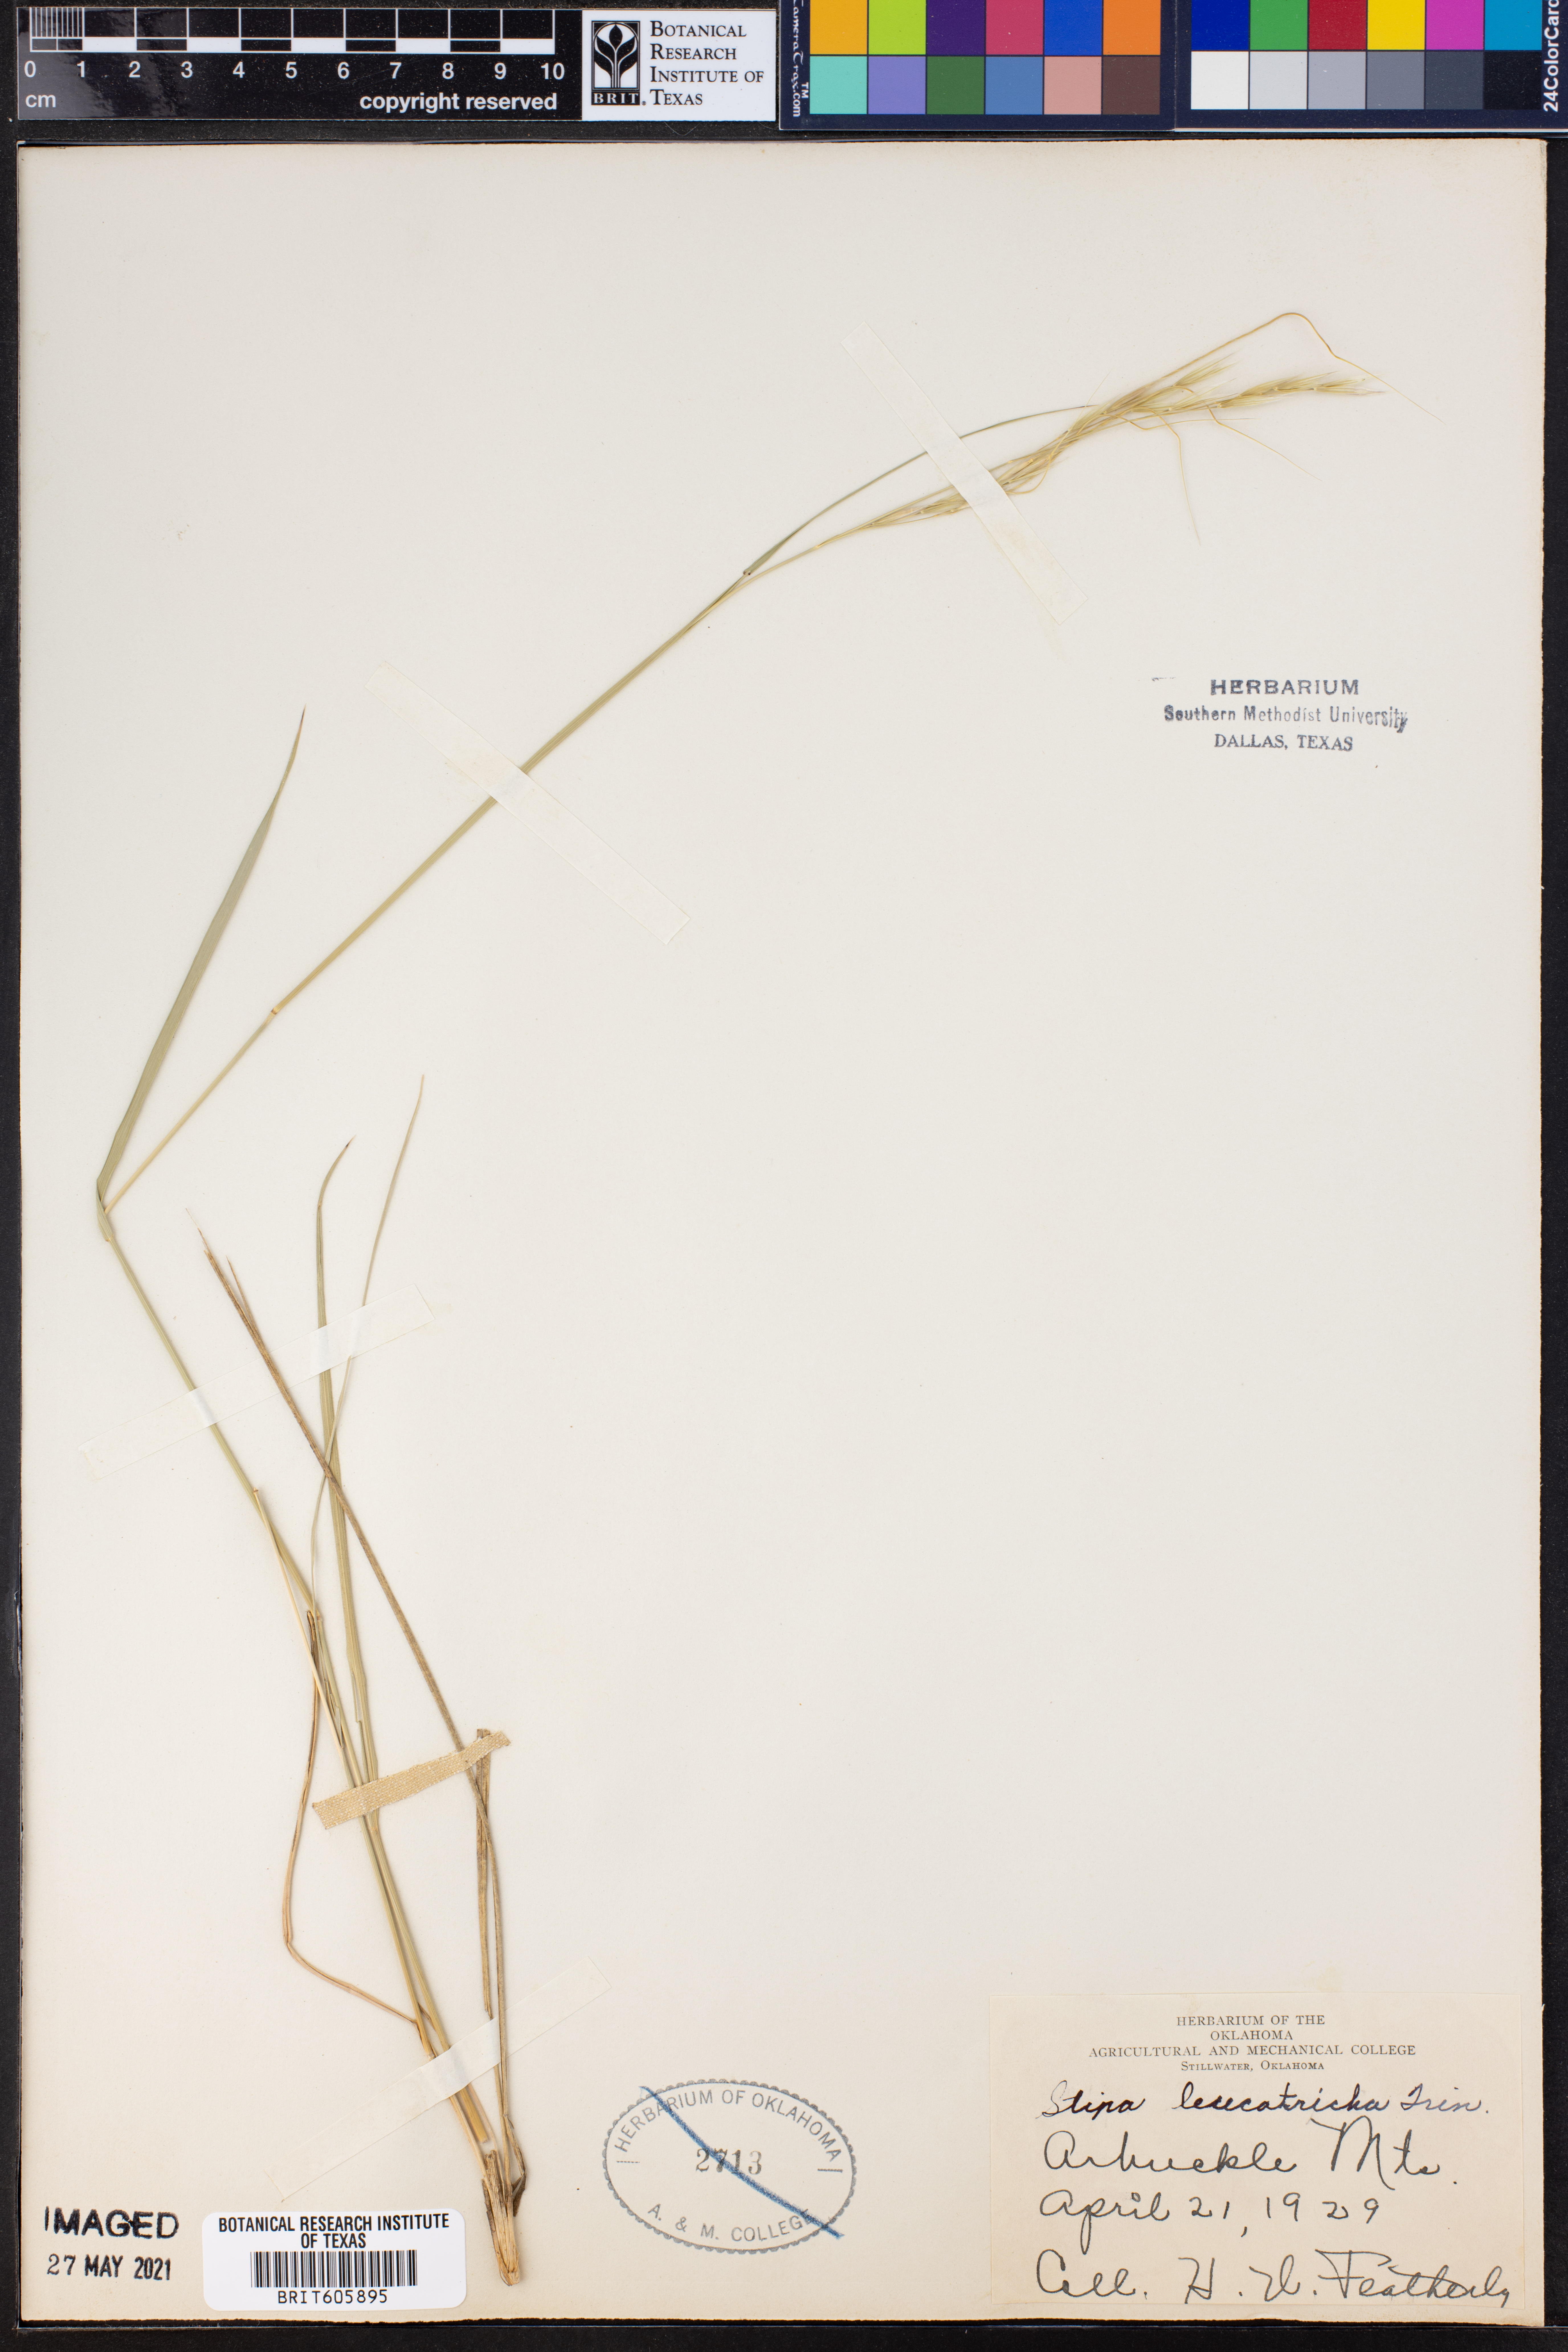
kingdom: Plantae
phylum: Tracheophyta
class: Liliopsida
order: Poales
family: Poaceae
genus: Nassella
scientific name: Nassella leucotricha
